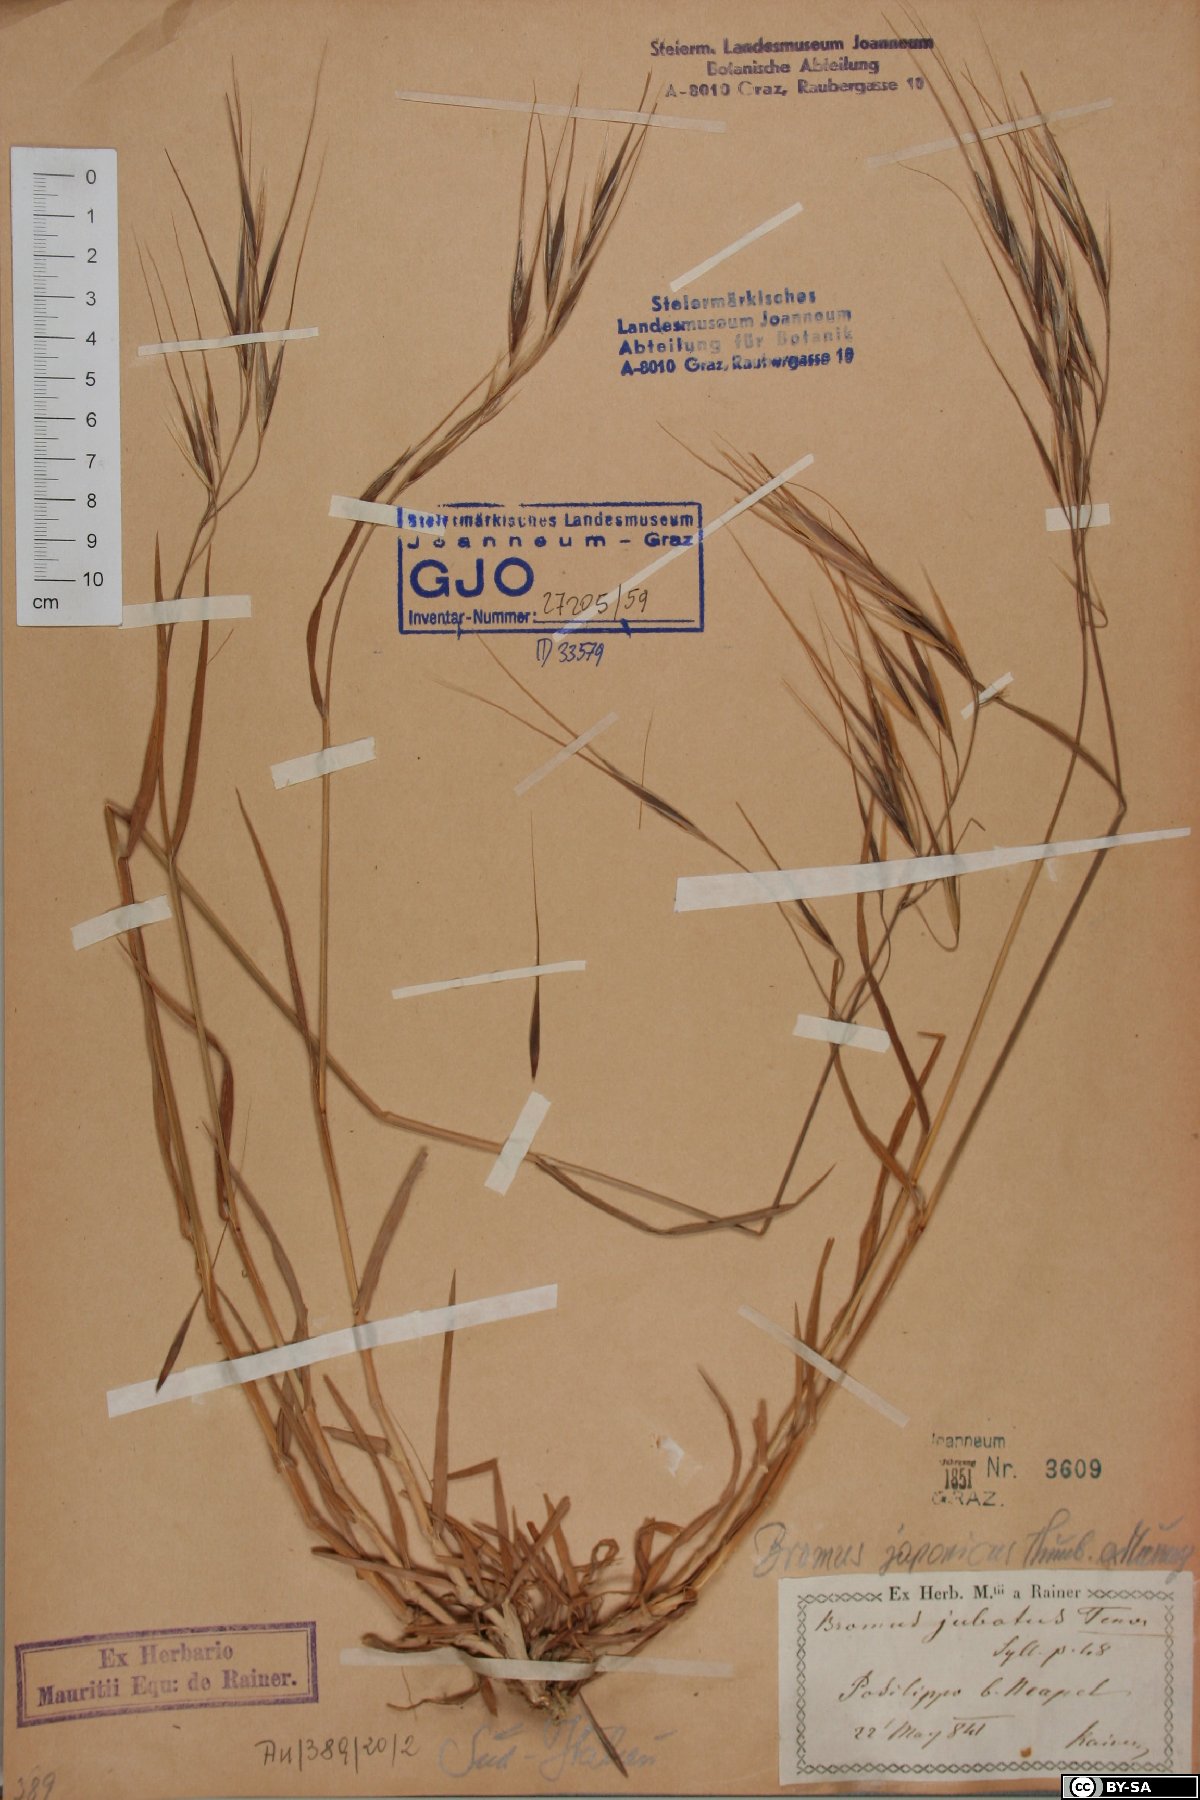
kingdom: Plantae
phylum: Tracheophyta
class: Liliopsida
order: Poales
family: Poaceae
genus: Bromus
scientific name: Bromus sterilis
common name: Poverty brome
